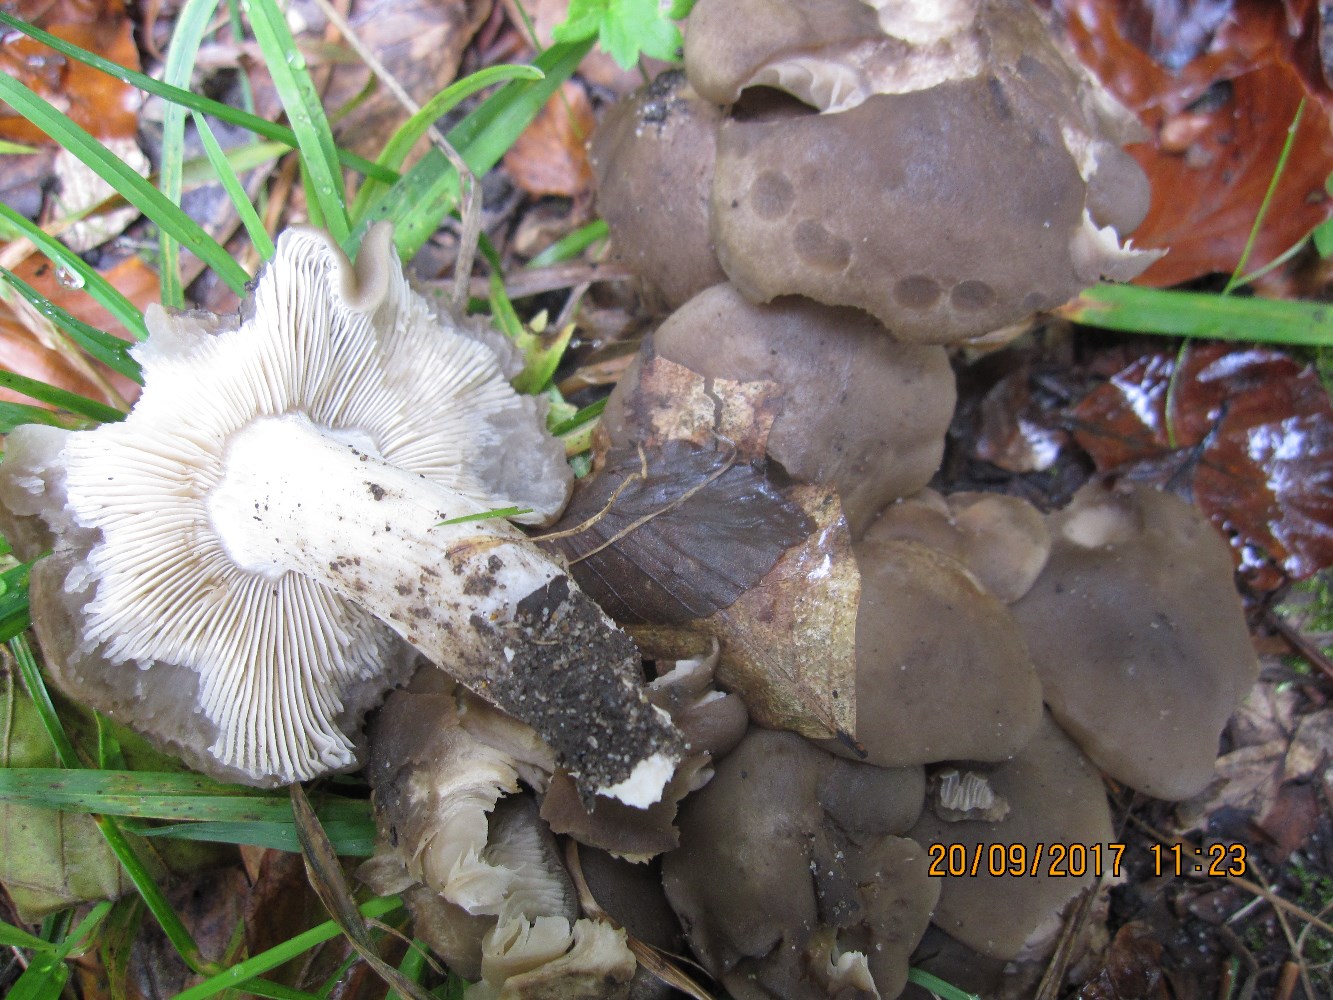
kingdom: Fungi
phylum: Basidiomycota
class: Agaricomycetes
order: Agaricales
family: Lyophyllaceae
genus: Lyophyllum
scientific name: Lyophyllum decastes
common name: Clustered domecap
